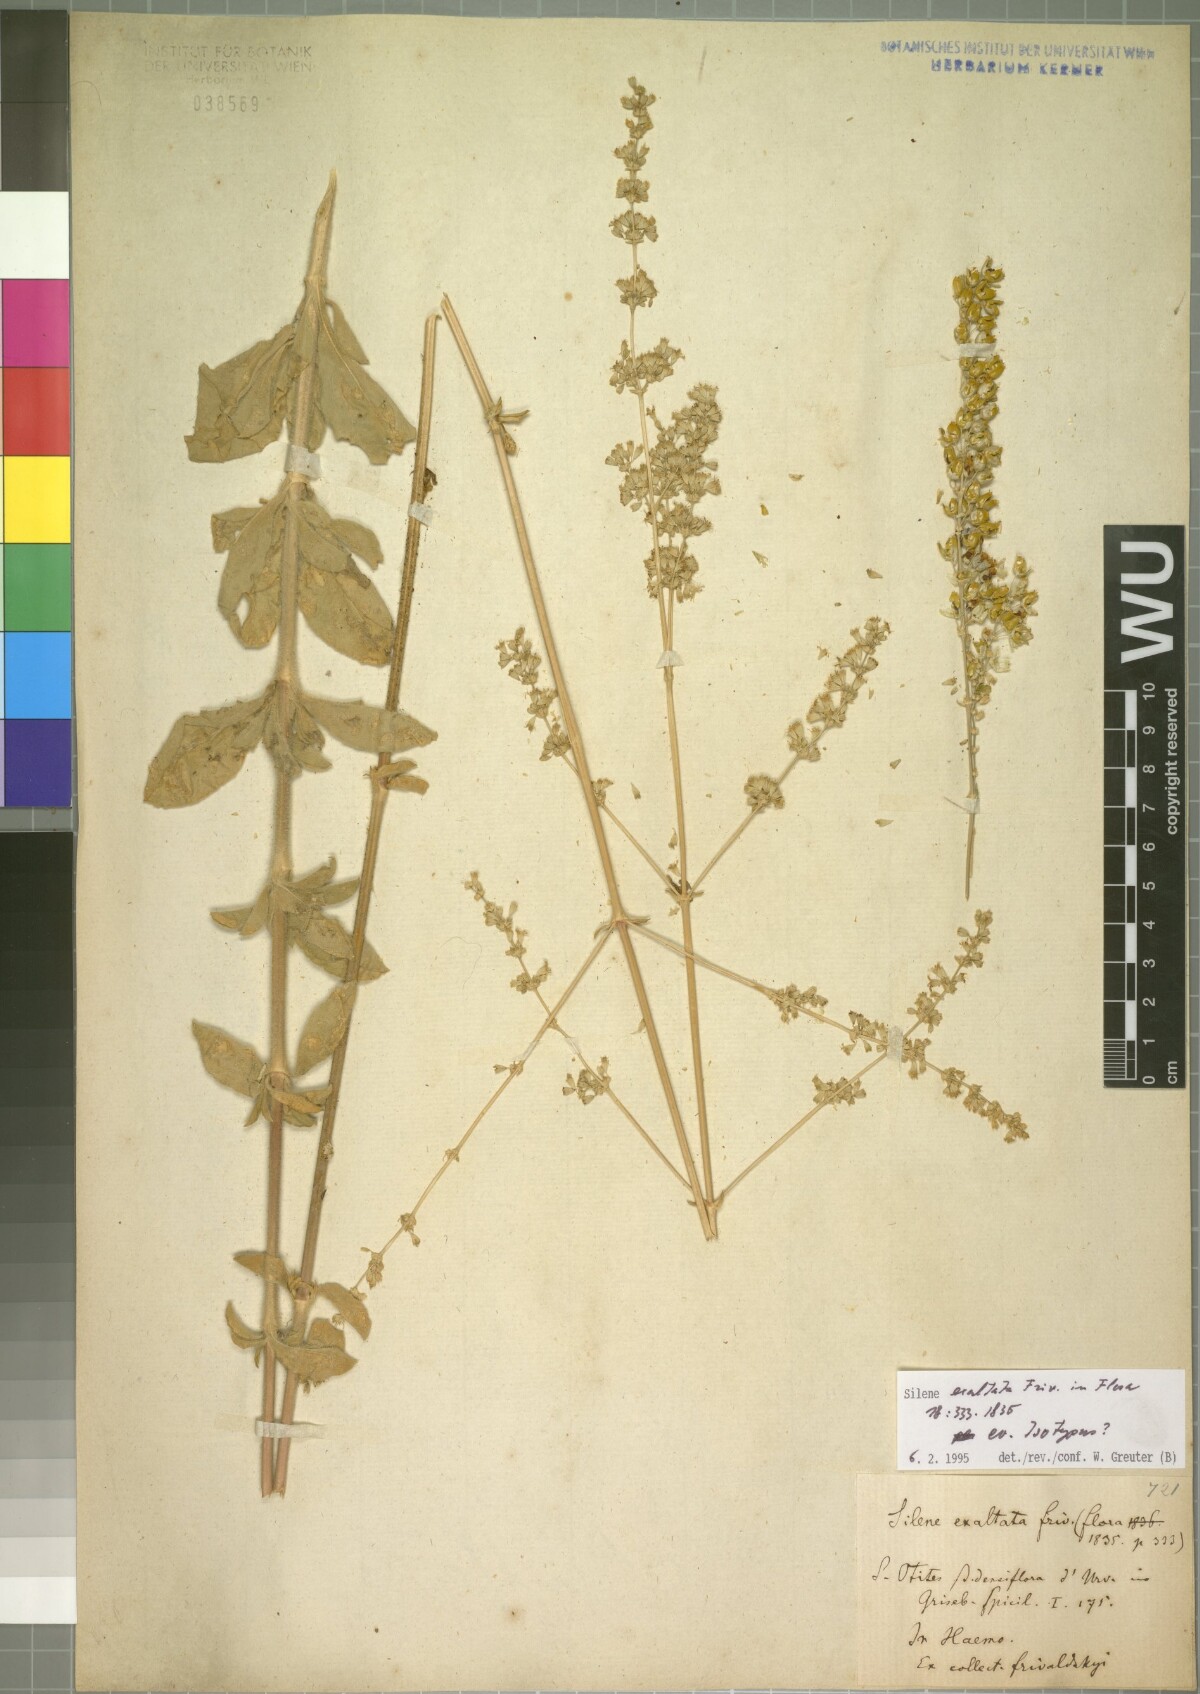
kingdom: Plantae
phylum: Tracheophyta
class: Magnoliopsida
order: Caryophyllales
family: Caryophyllaceae
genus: Silene
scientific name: Silene densiflora
